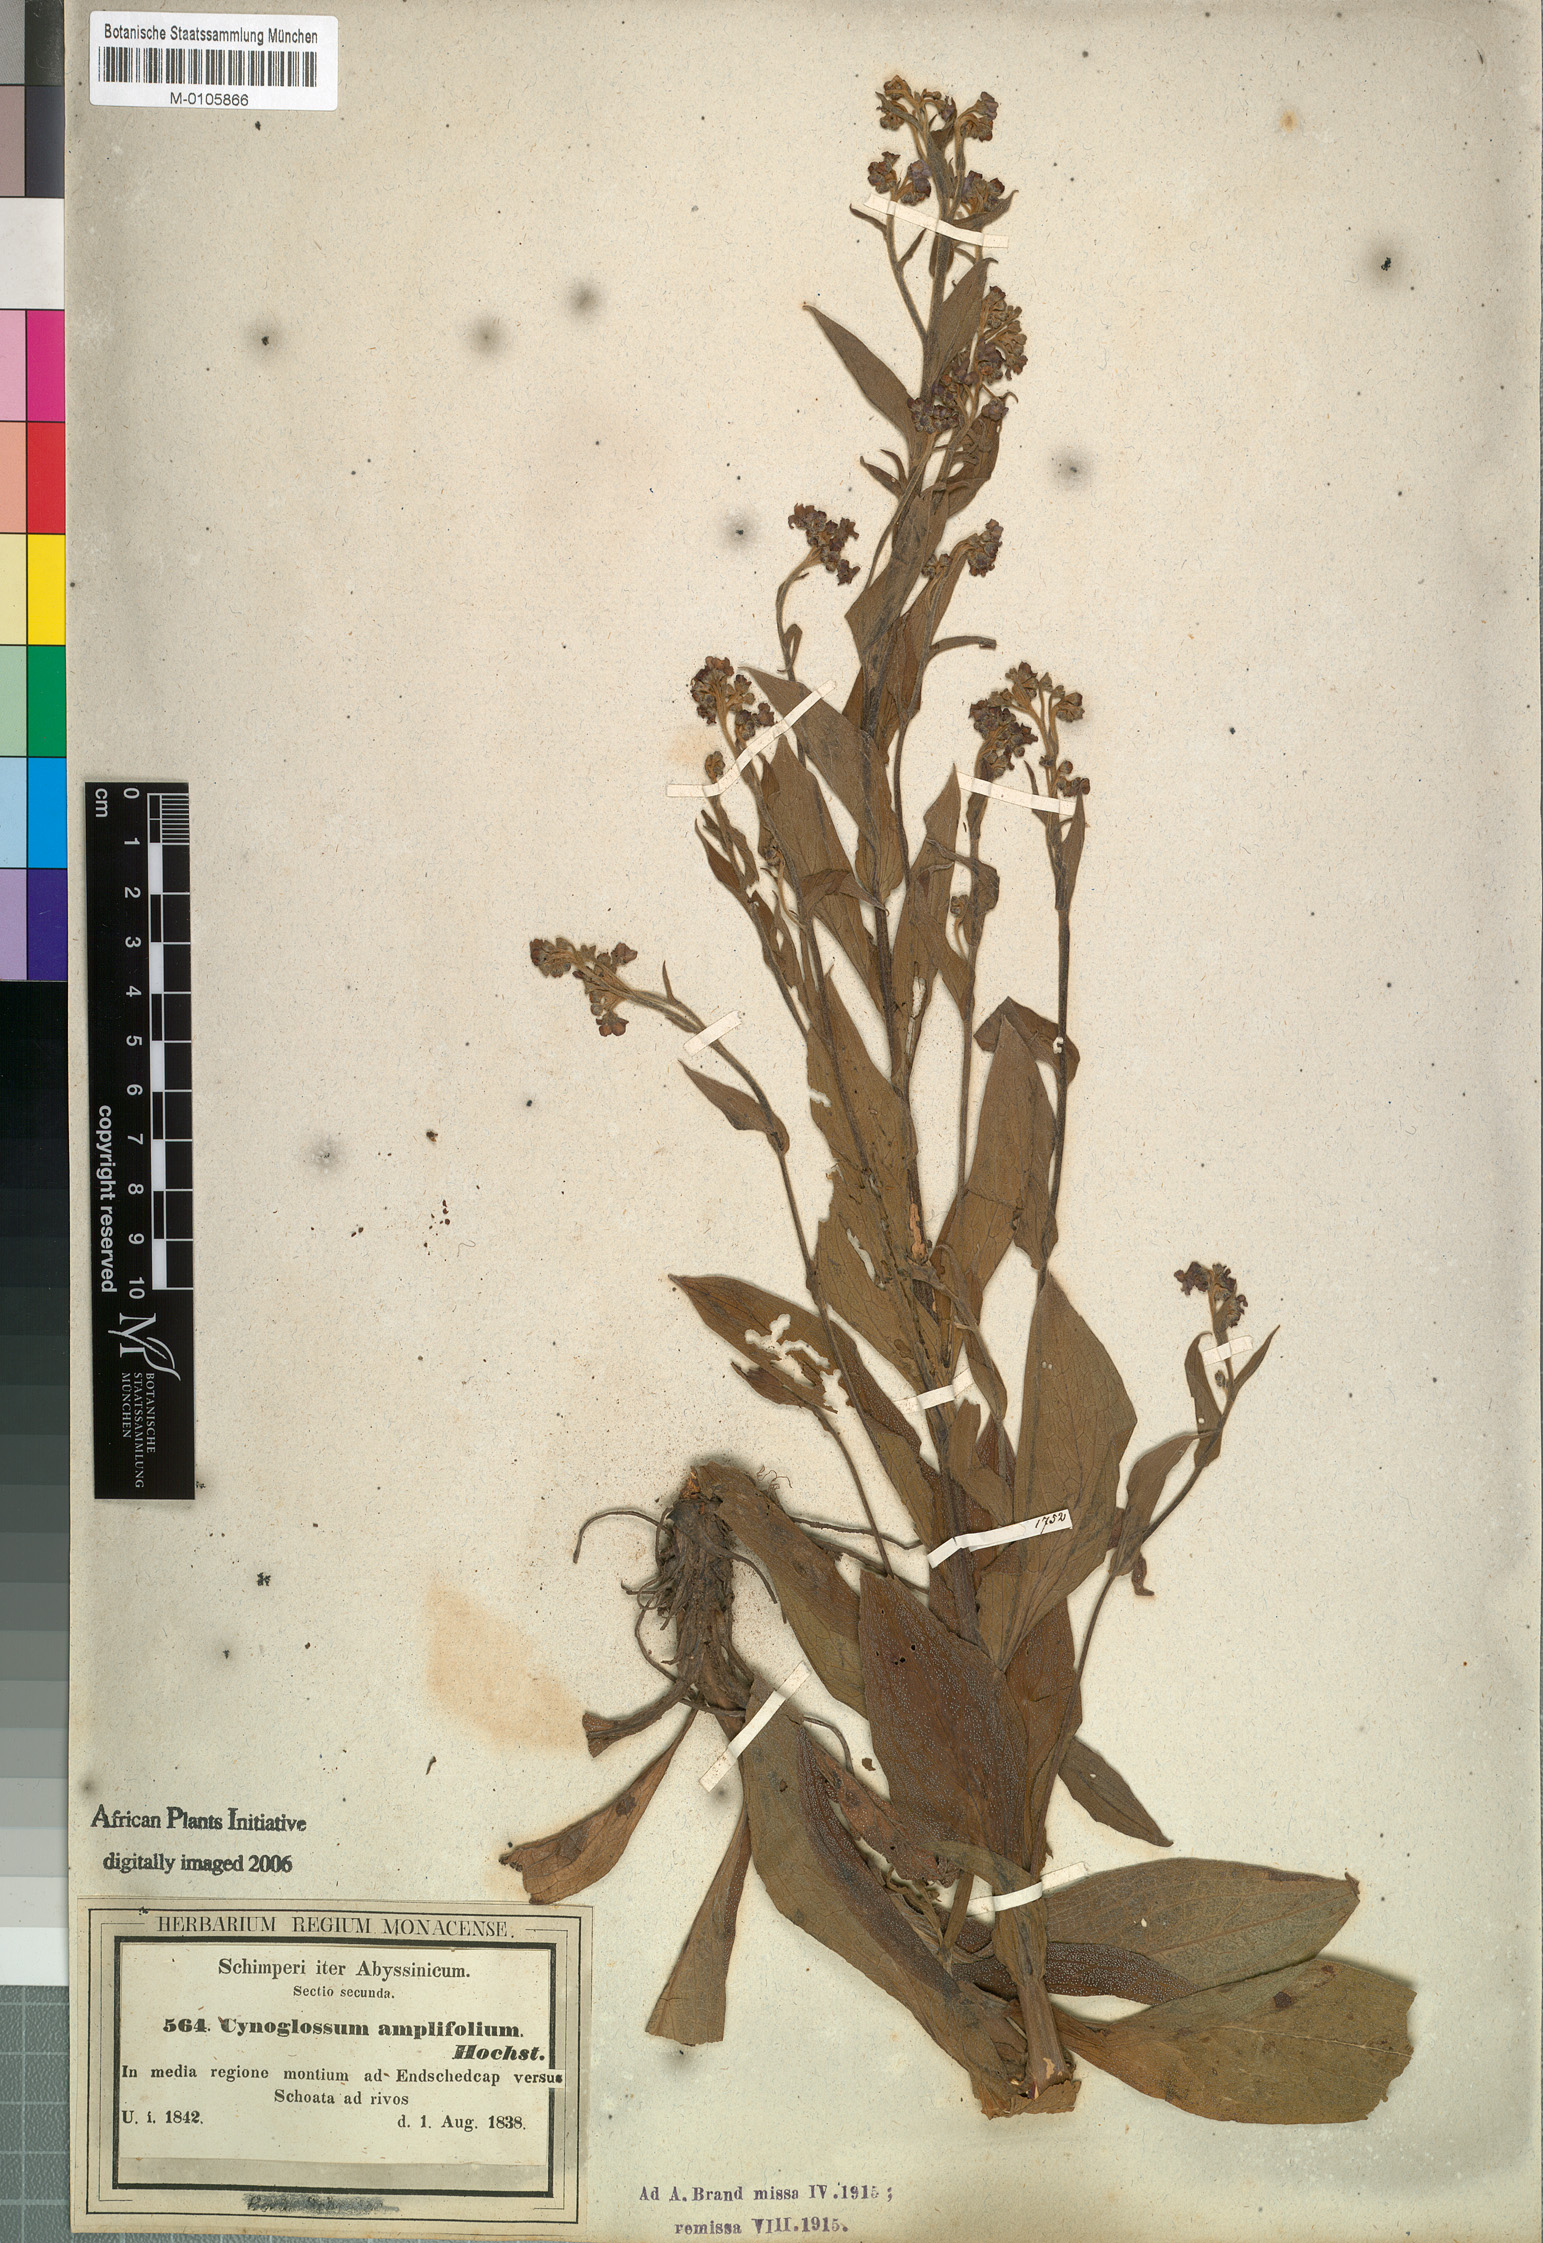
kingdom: Plantae
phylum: Tracheophyta
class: Magnoliopsida
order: Boraginales
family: Boraginaceae
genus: Cynoglossum
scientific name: Cynoglossum amplifolium
